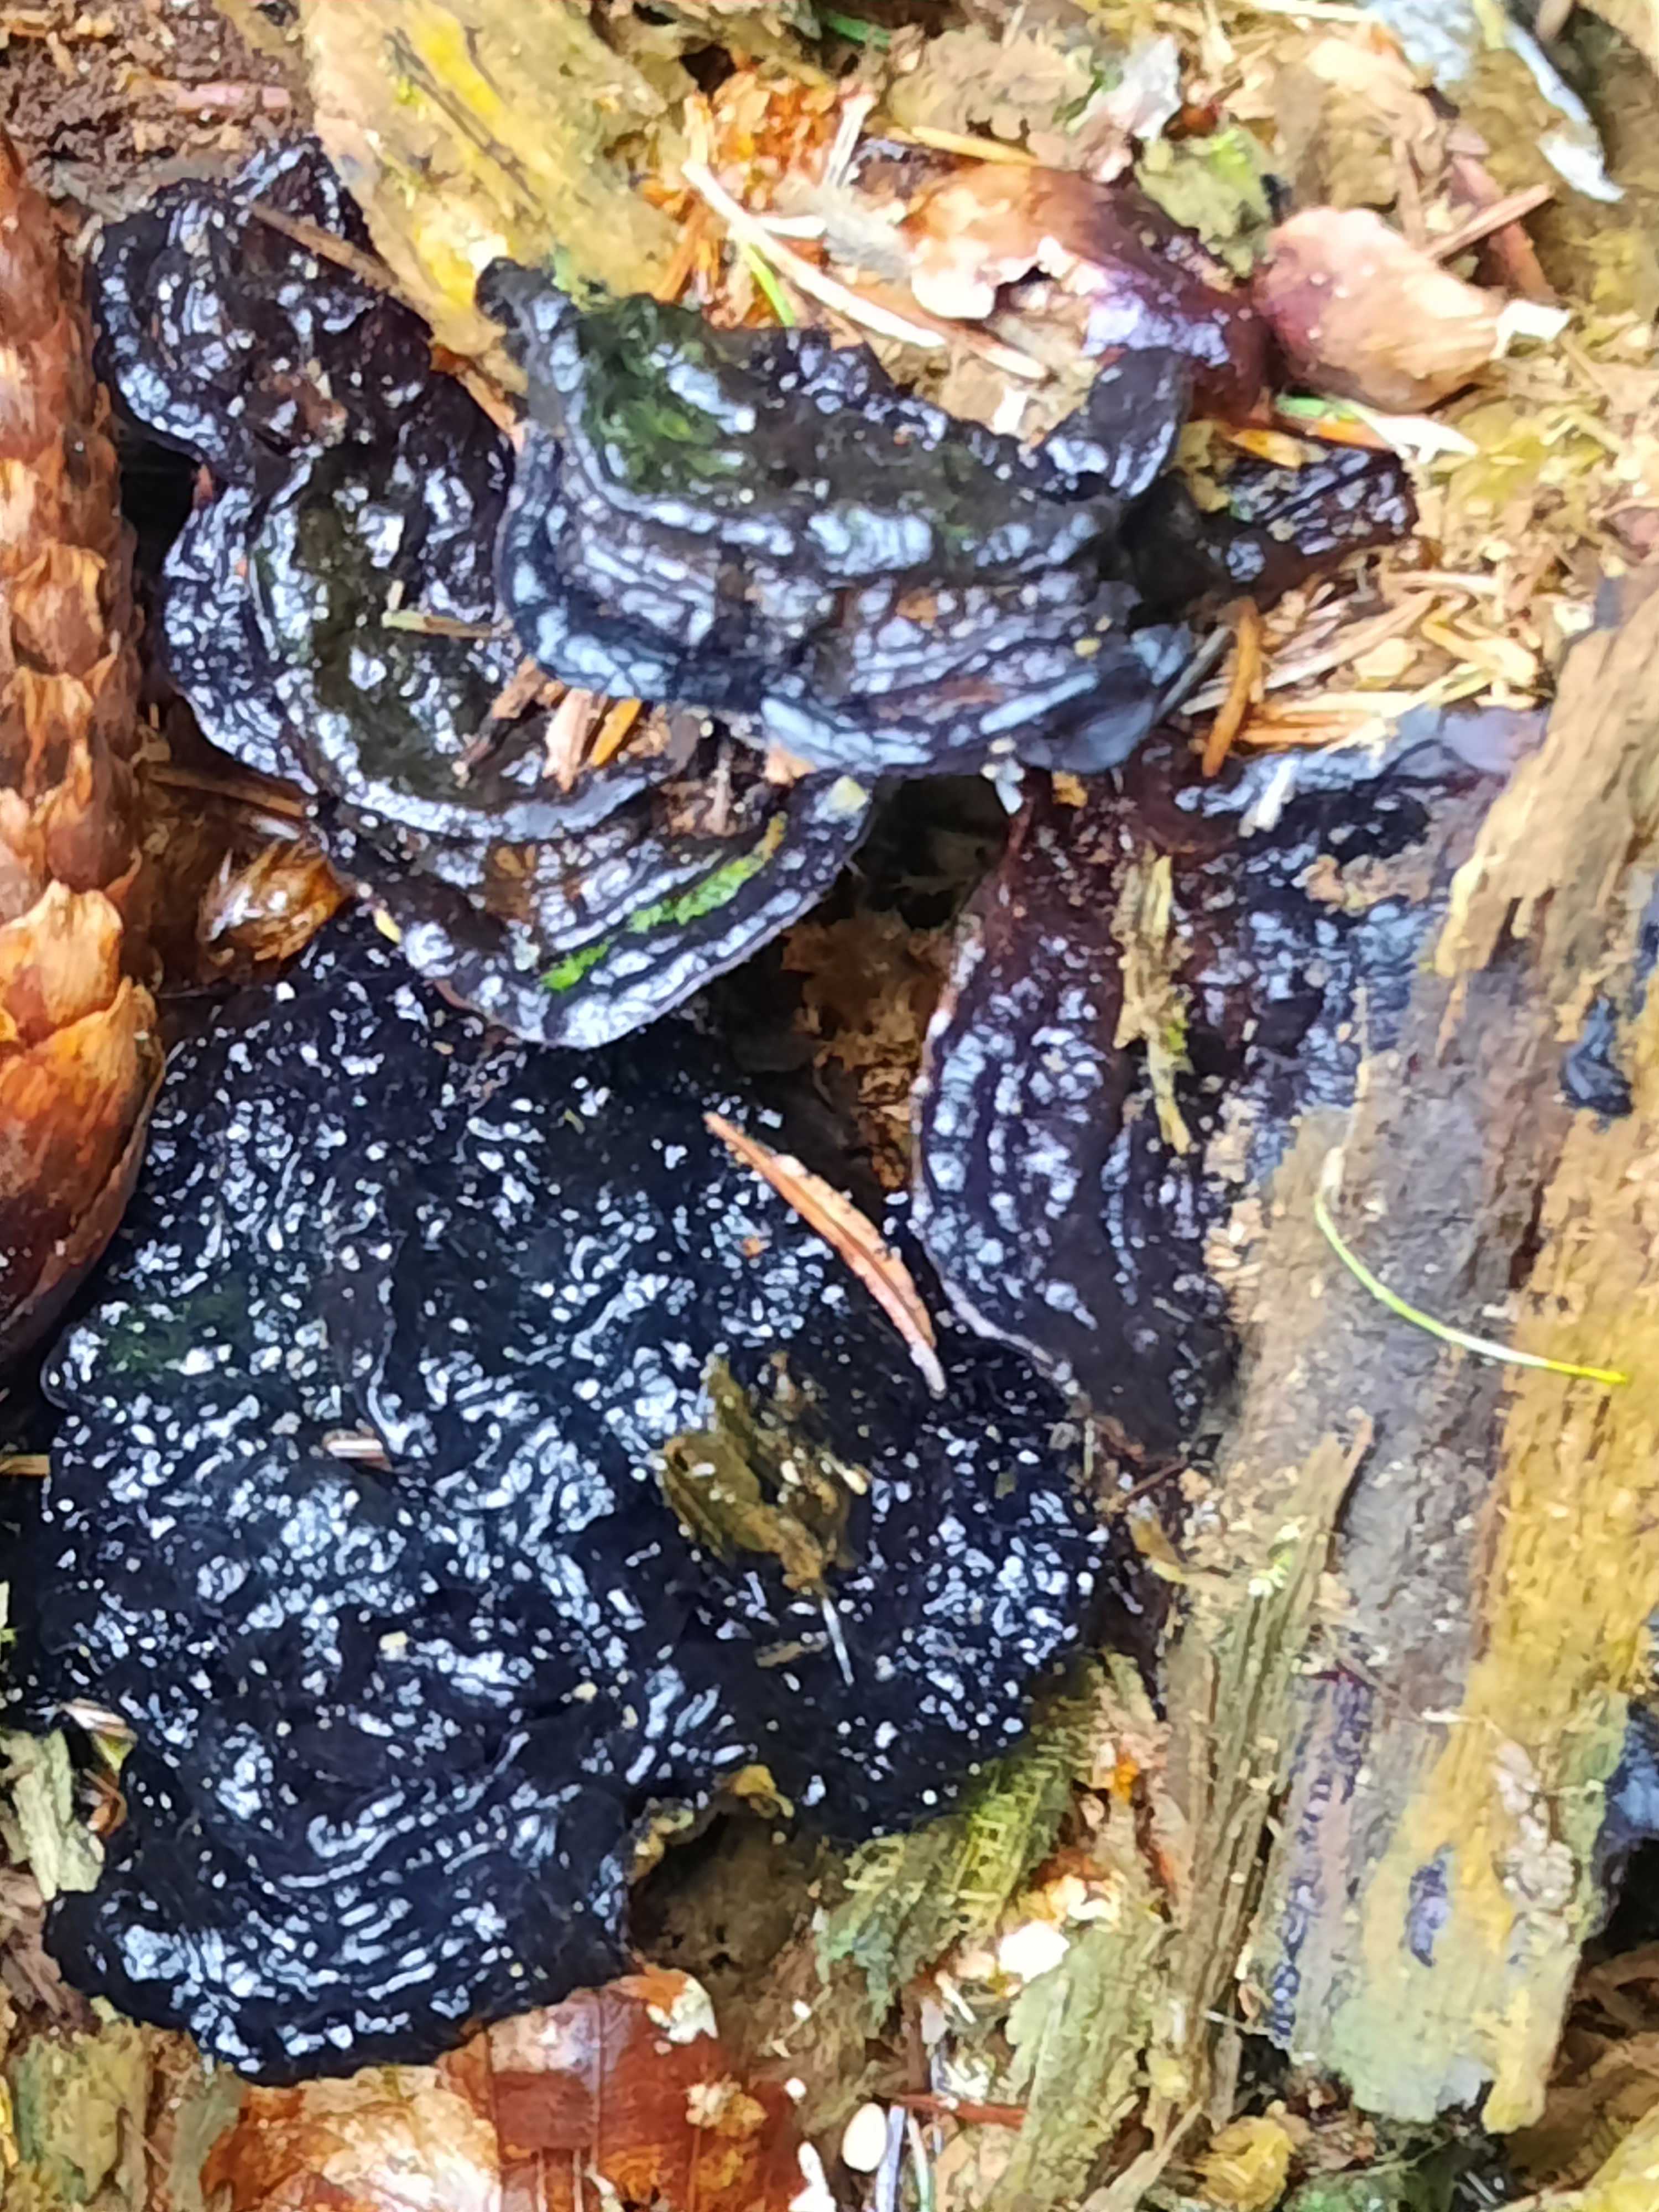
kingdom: Fungi
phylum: Basidiomycota
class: Agaricomycetes
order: Russulales
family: Bondarzewiaceae
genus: Heterobasidion
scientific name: Heterobasidion annosum
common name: almindelig rodfordærver
